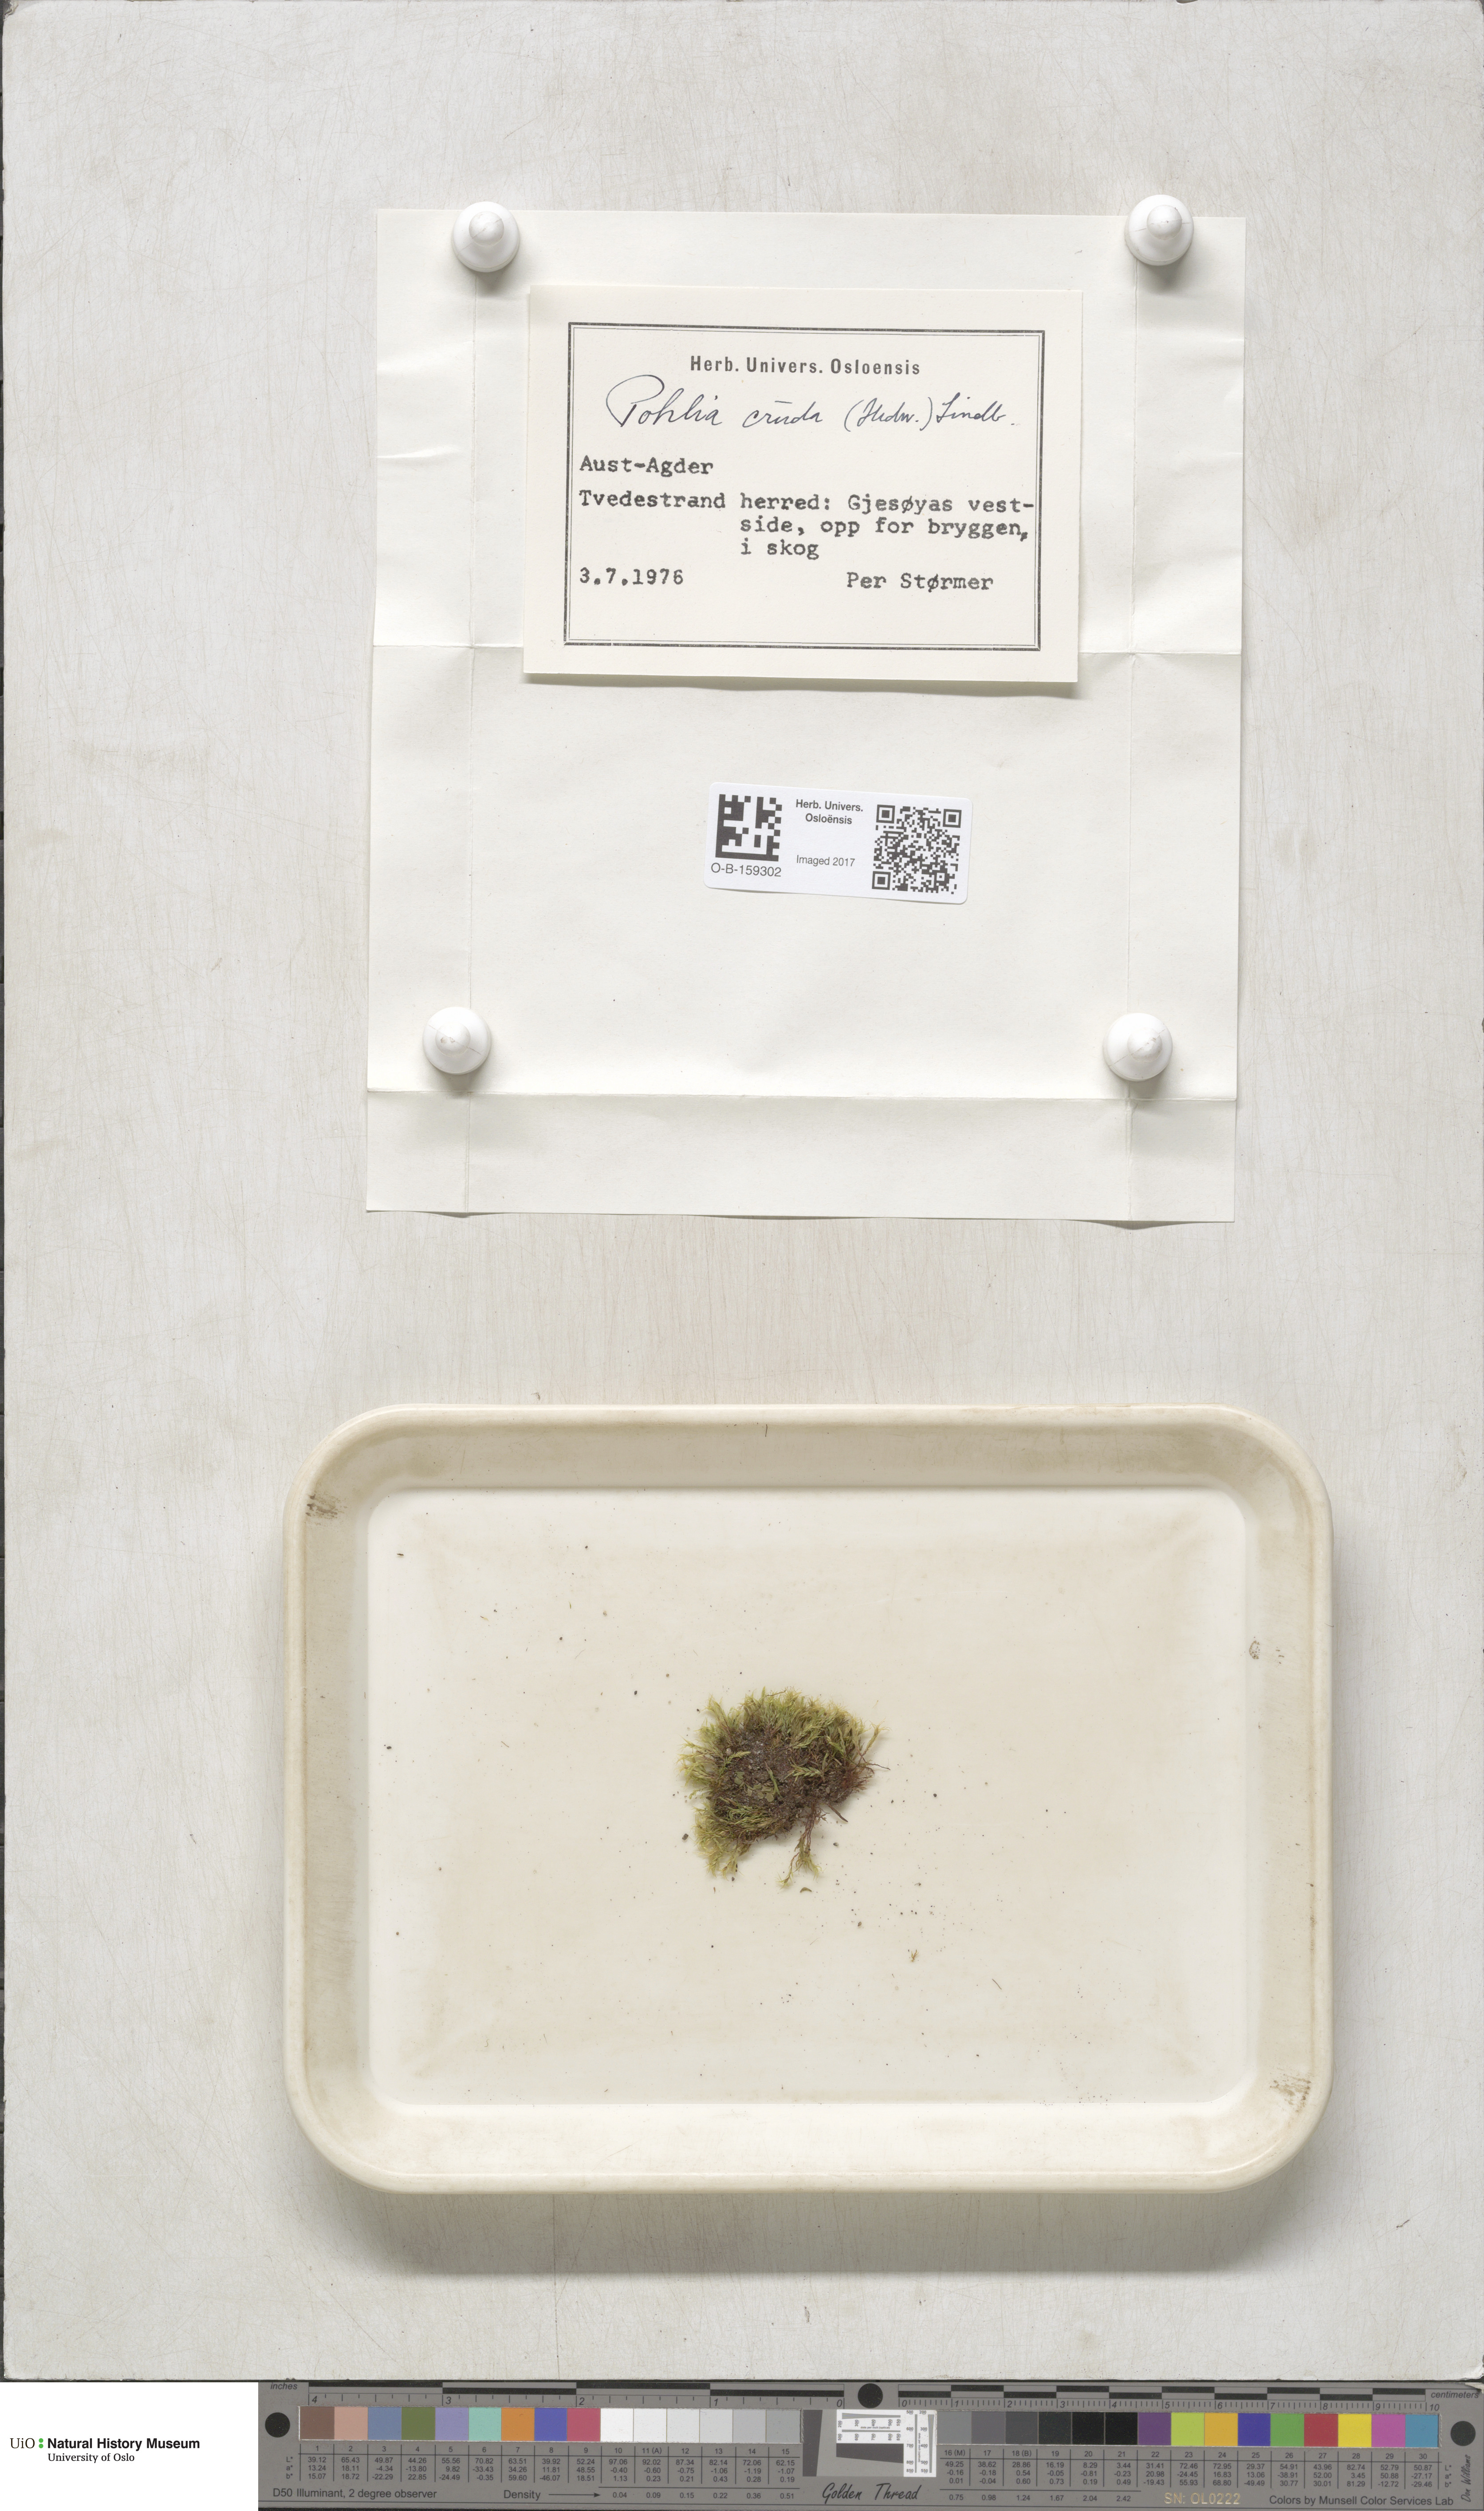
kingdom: Plantae
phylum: Bryophyta
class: Bryopsida
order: Bryales
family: Mniaceae
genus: Pohlia
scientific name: Pohlia cruda
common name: Opal nodding moss
